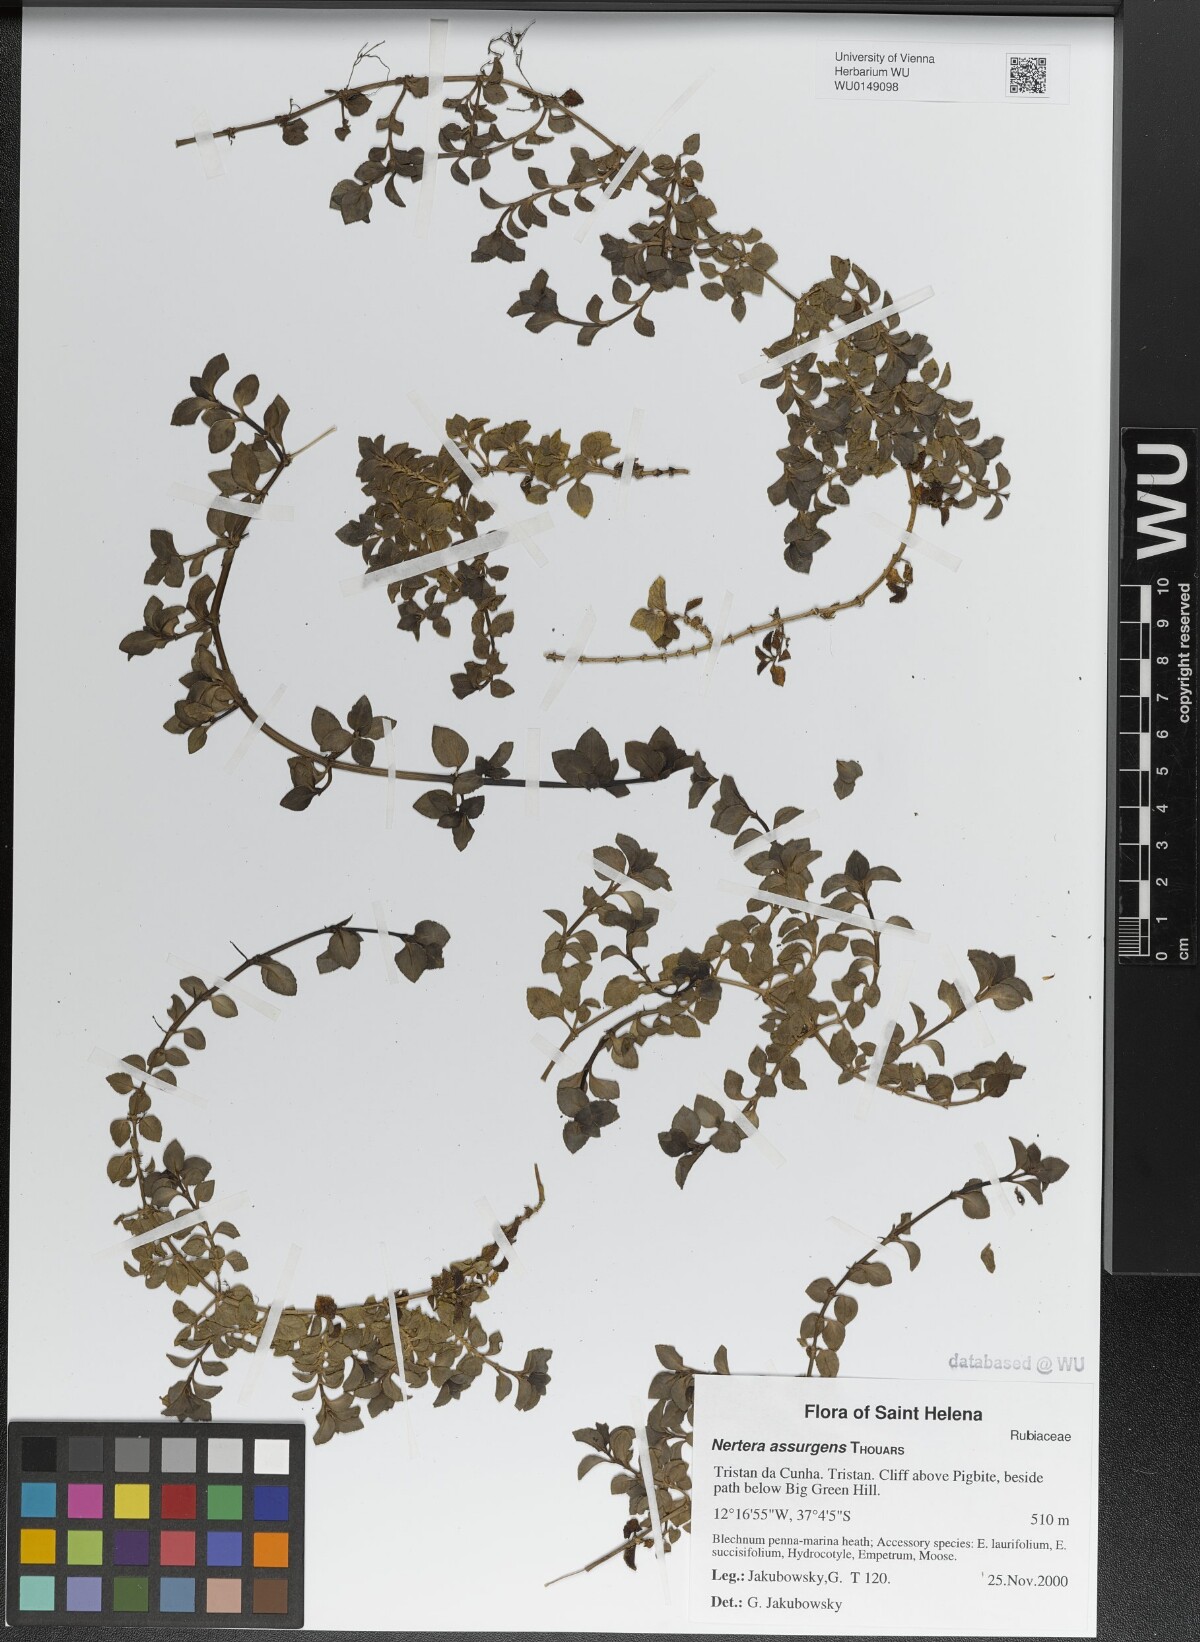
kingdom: Plantae
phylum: Tracheophyta
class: Magnoliopsida
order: Gentianales
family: Rubiaceae
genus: Nertera
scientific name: Nertera granadensis
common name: Beadplant
